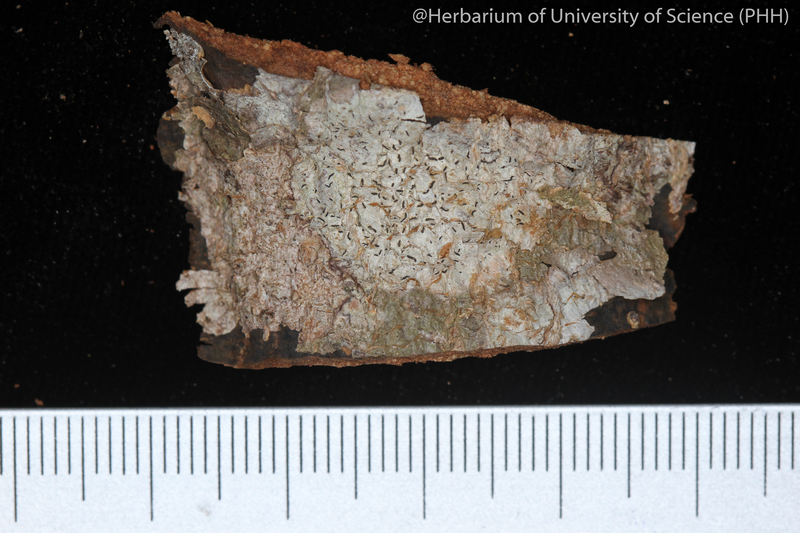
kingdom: Fungi
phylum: Ascomycota
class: Lecanoromycetes
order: Ostropales
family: Graphidaceae
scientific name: Graphidaceae
